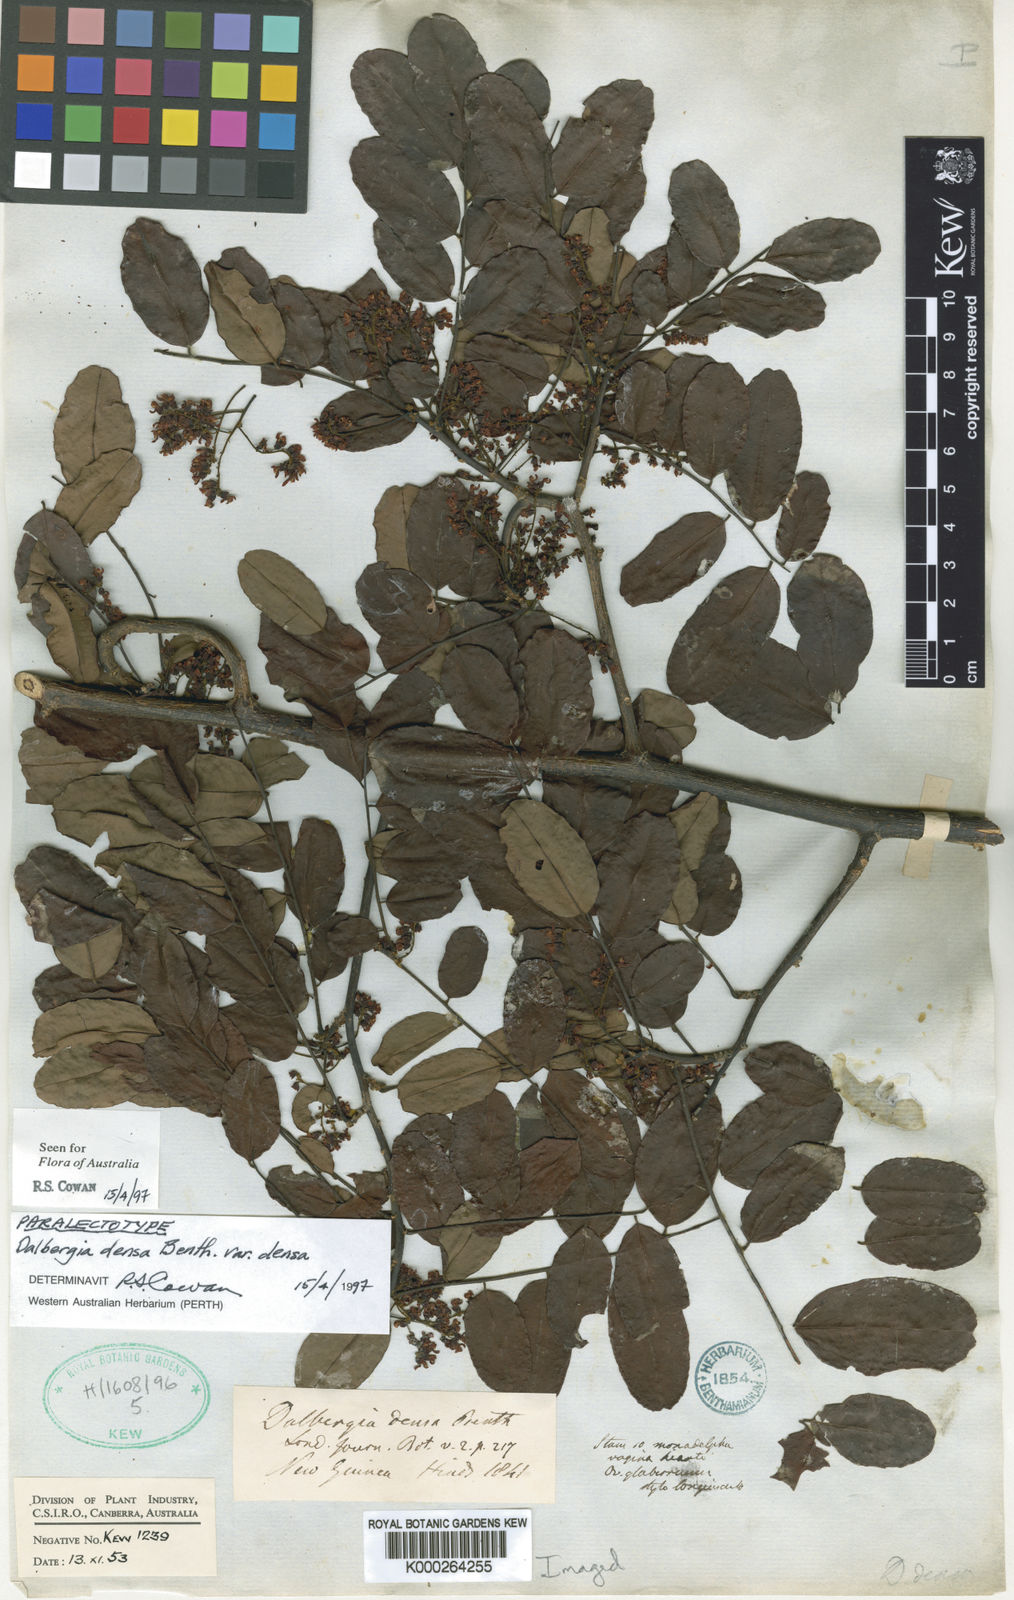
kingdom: Plantae
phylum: Tracheophyta
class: Magnoliopsida
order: Fabales
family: Fabaceae
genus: Dalbergia
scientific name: Dalbergia densa
